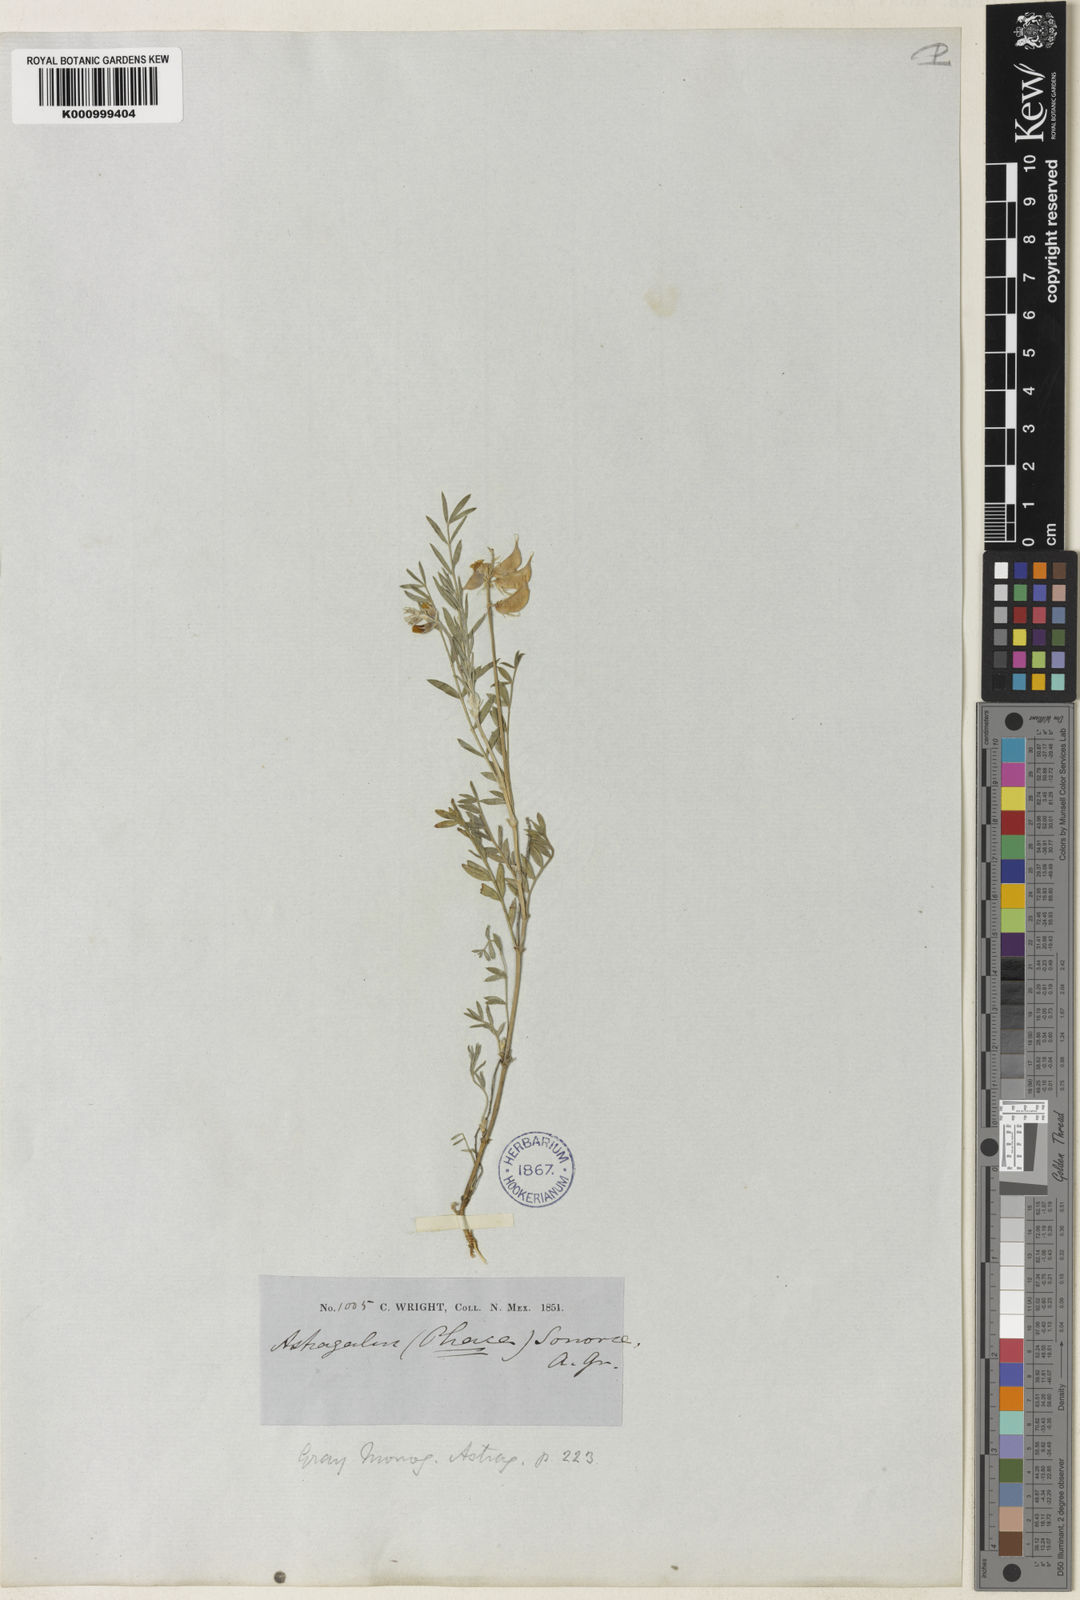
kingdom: Plantae
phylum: Tracheophyta
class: Magnoliopsida
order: Fabales
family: Fabaceae
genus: Astragalus
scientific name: Astragalus humistratus
